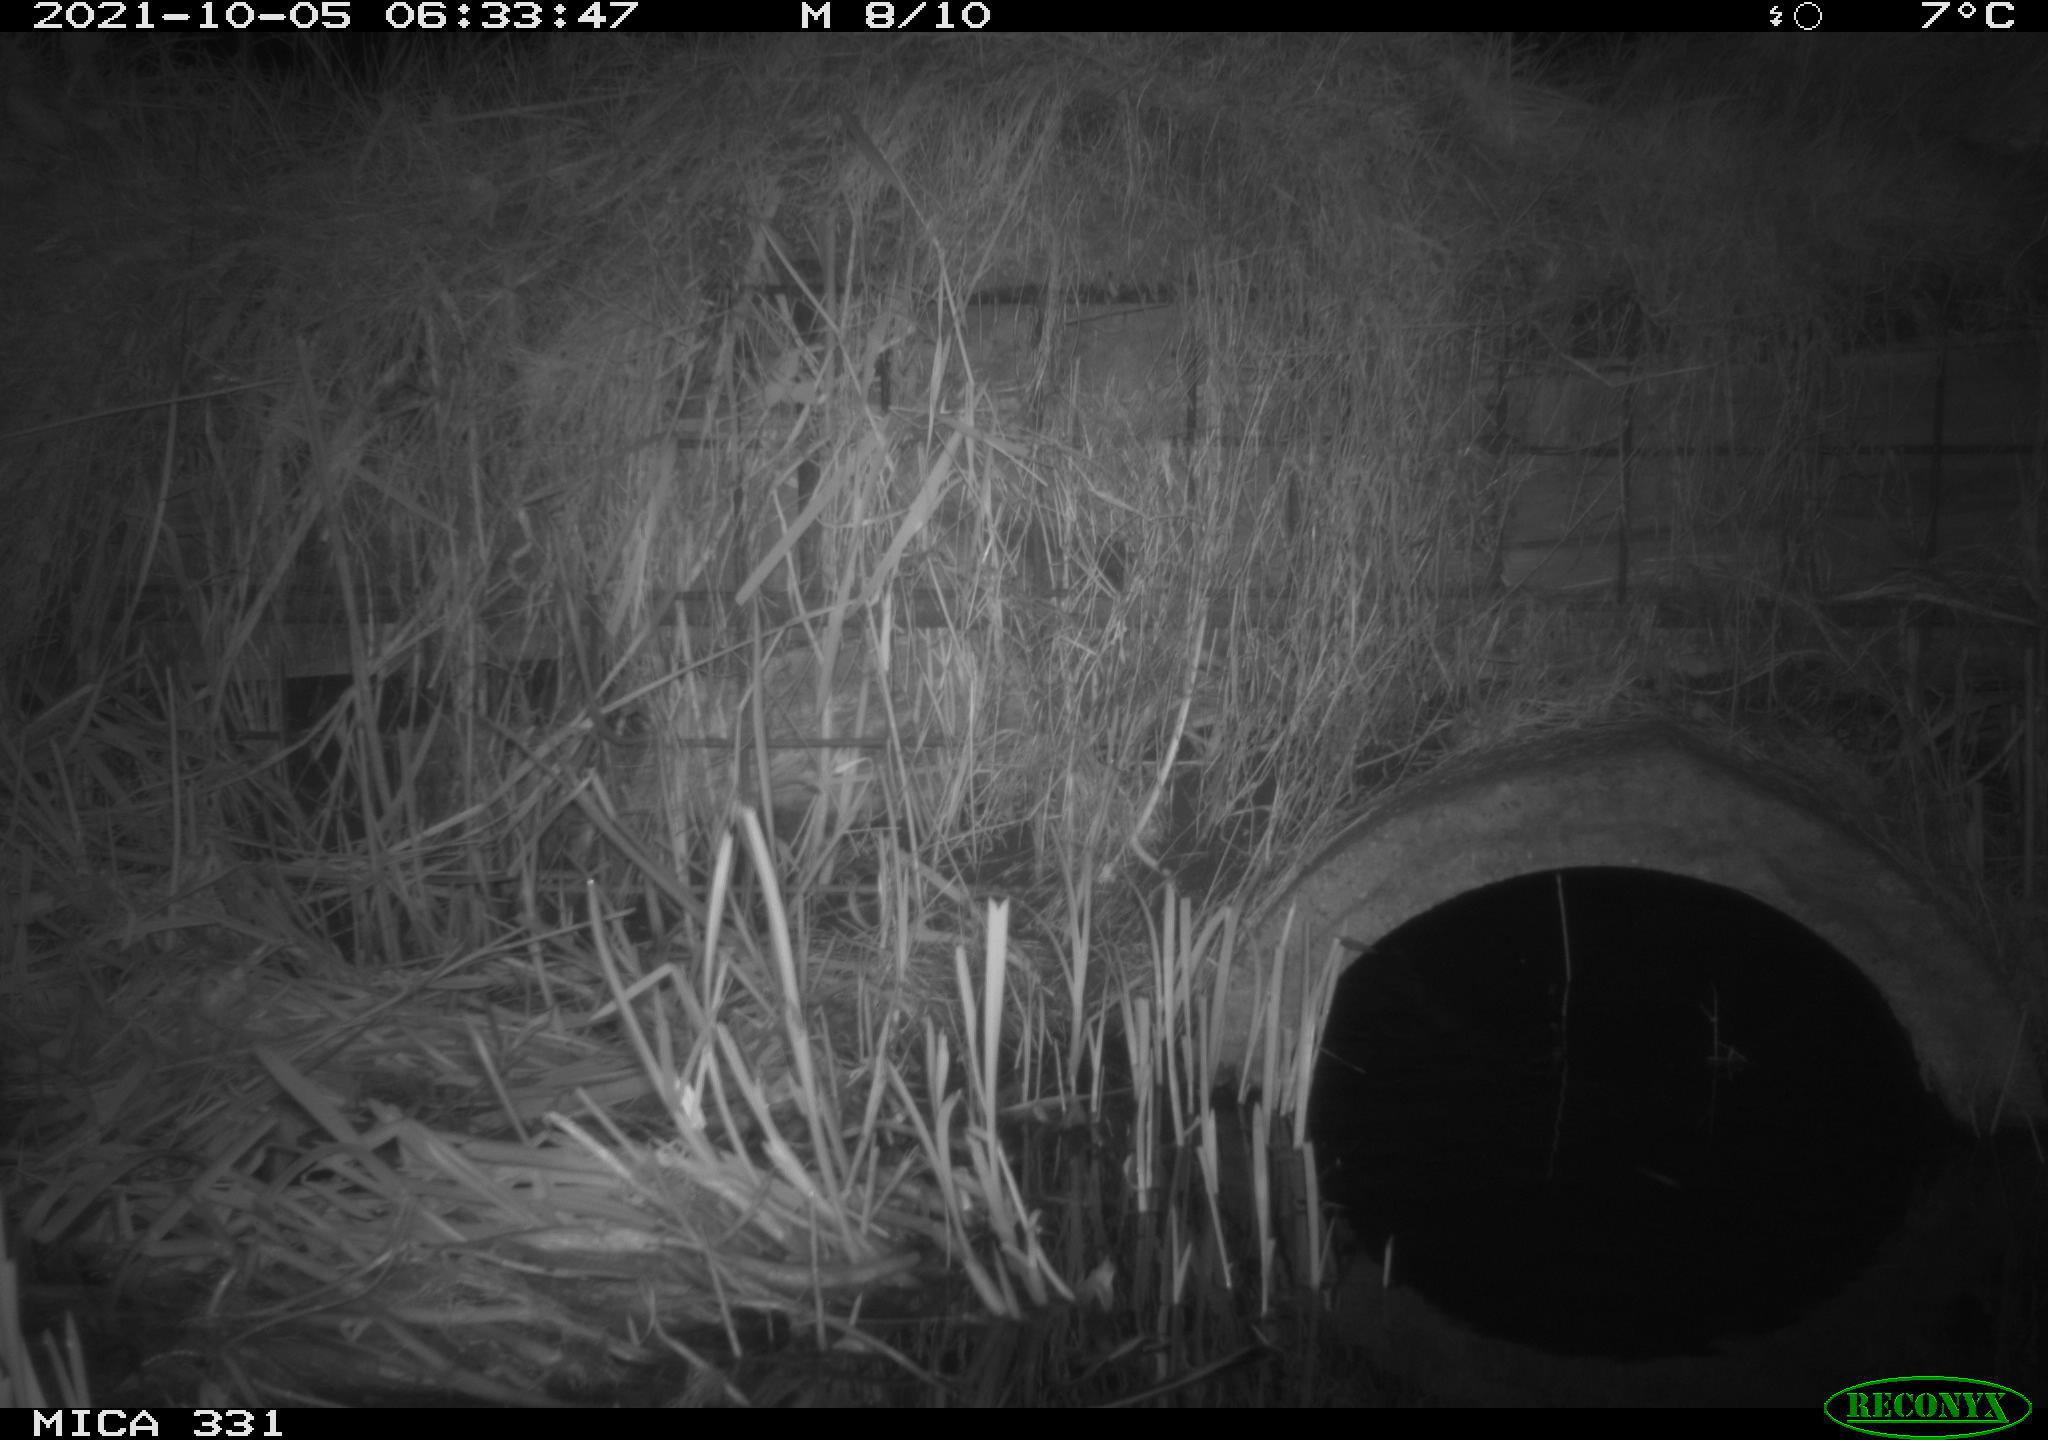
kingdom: Animalia
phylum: Chordata
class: Mammalia
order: Rodentia
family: Muridae
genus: Rattus
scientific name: Rattus norvegicus
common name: Brown rat
